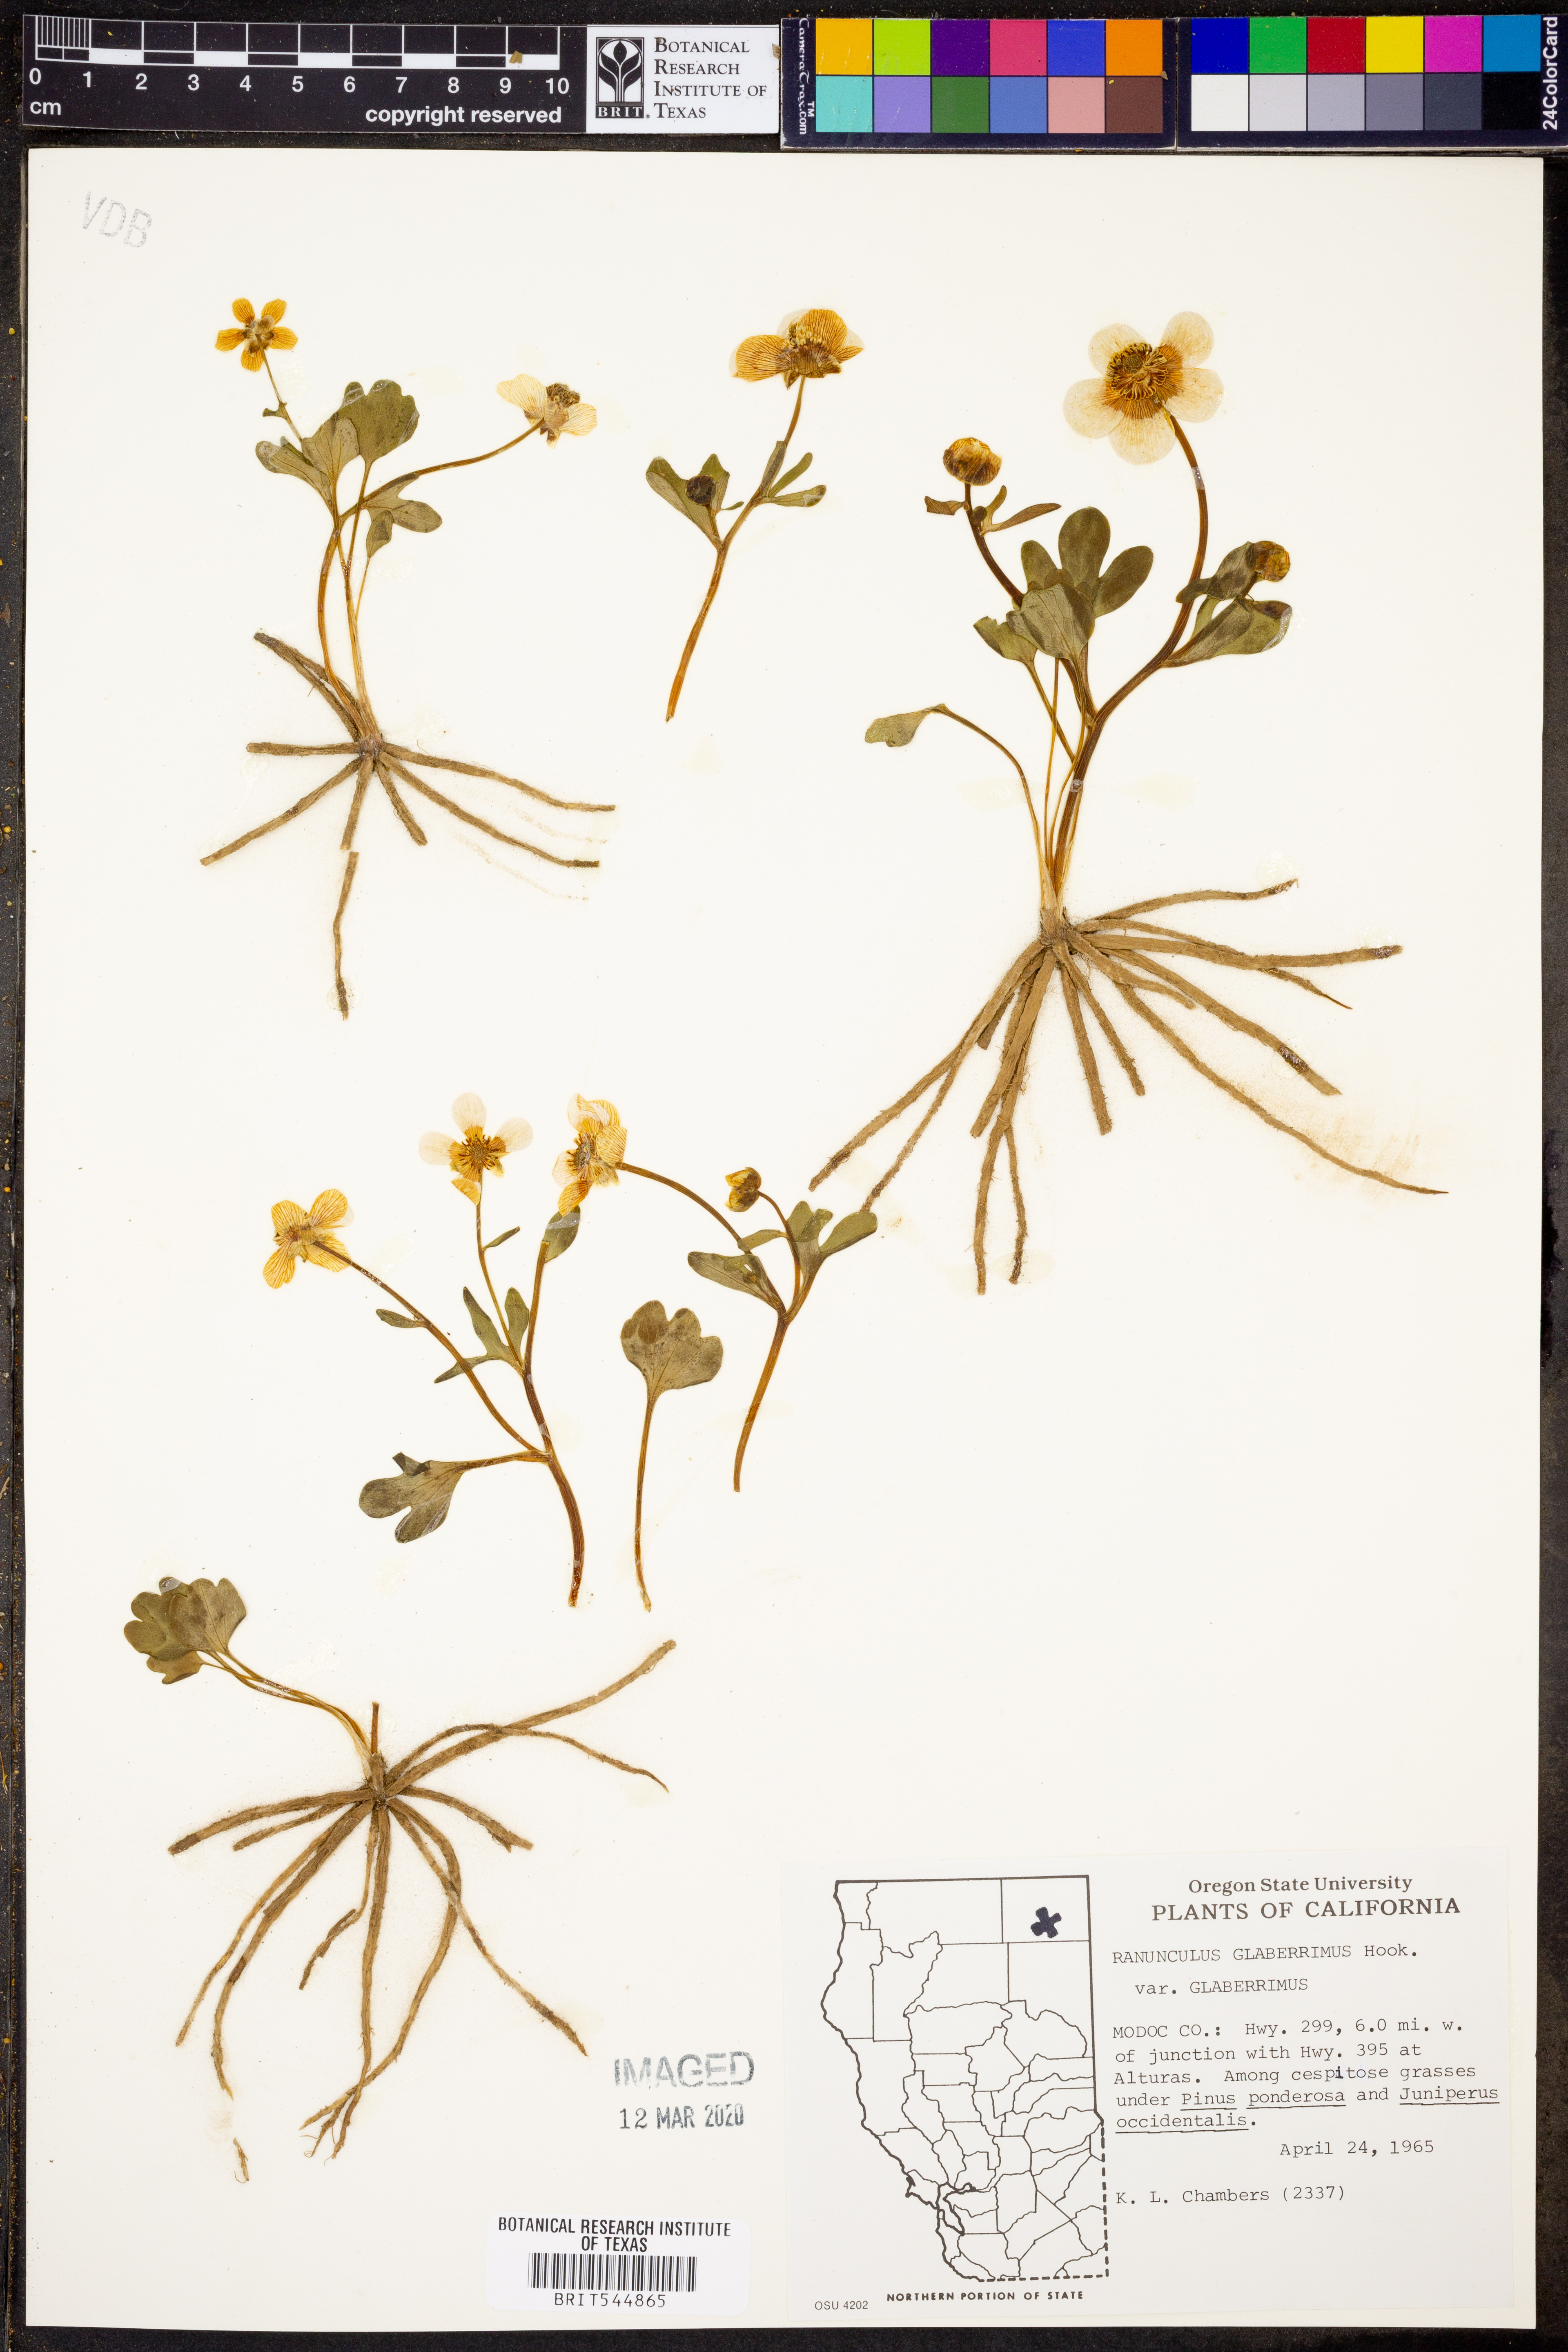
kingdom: Plantae
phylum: Tracheophyta
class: Magnoliopsida
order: Ranunculales
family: Ranunculaceae
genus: Ranunculus
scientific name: Ranunculus glaberrimus
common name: Sagebrush buttercup
